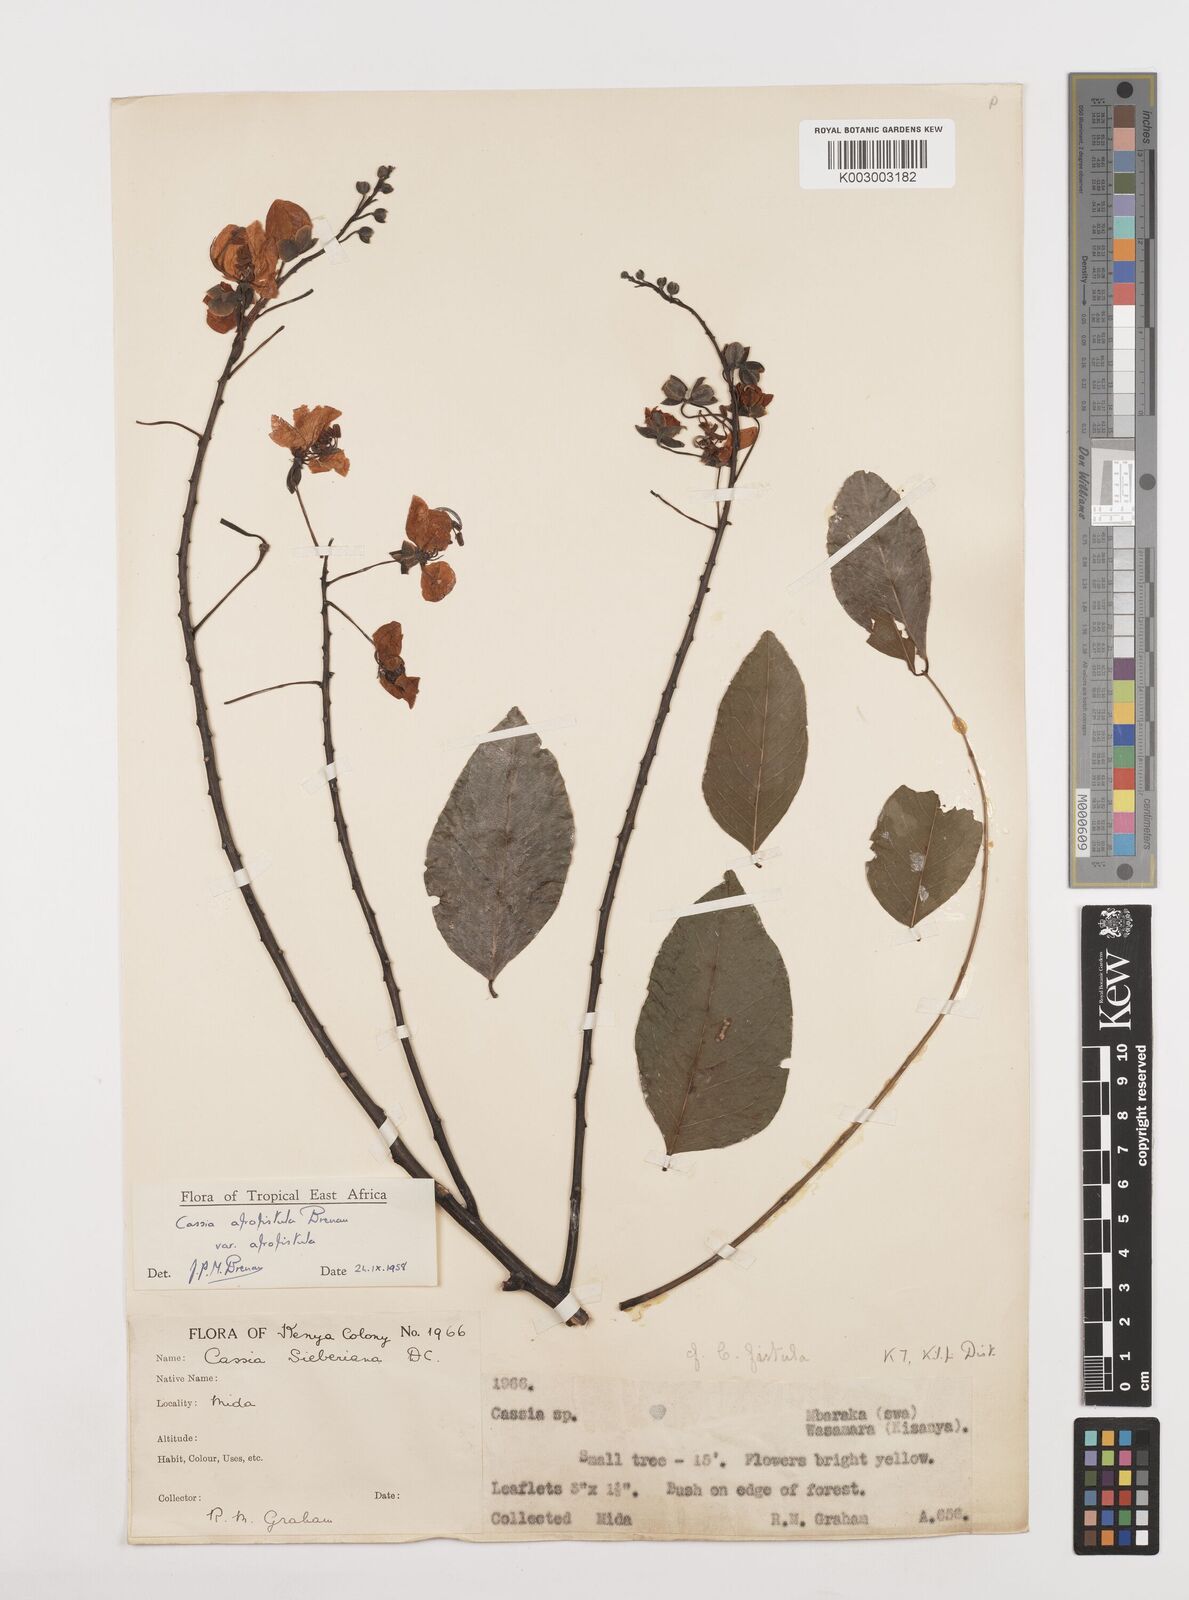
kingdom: Plantae
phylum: Tracheophyta
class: Magnoliopsida
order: Fabales
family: Fabaceae
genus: Cassia
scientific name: Cassia afrofistula
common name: Kenyan shower
